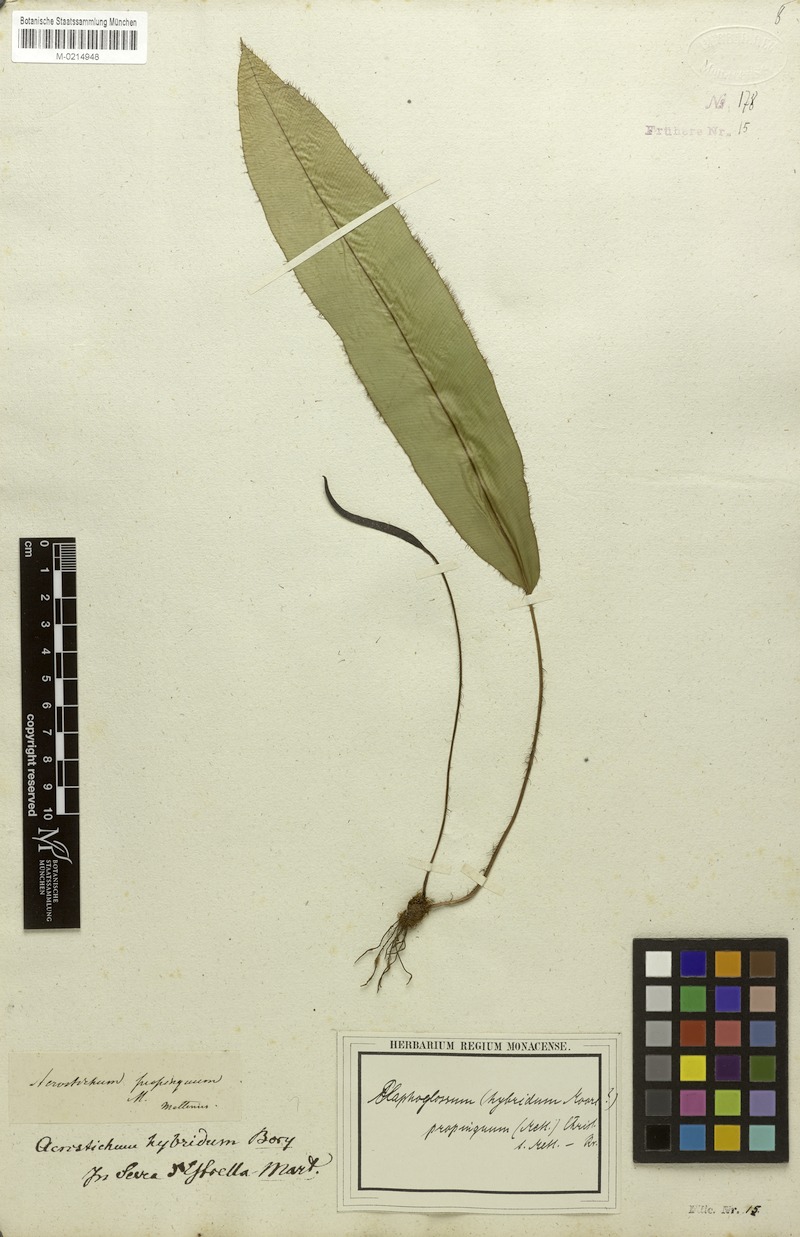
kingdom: Plantae
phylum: Tracheophyta
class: Polypodiopsida
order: Polypodiales
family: Dryopteridaceae
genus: Elaphoglossum
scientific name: Elaphoglossum hybridum
